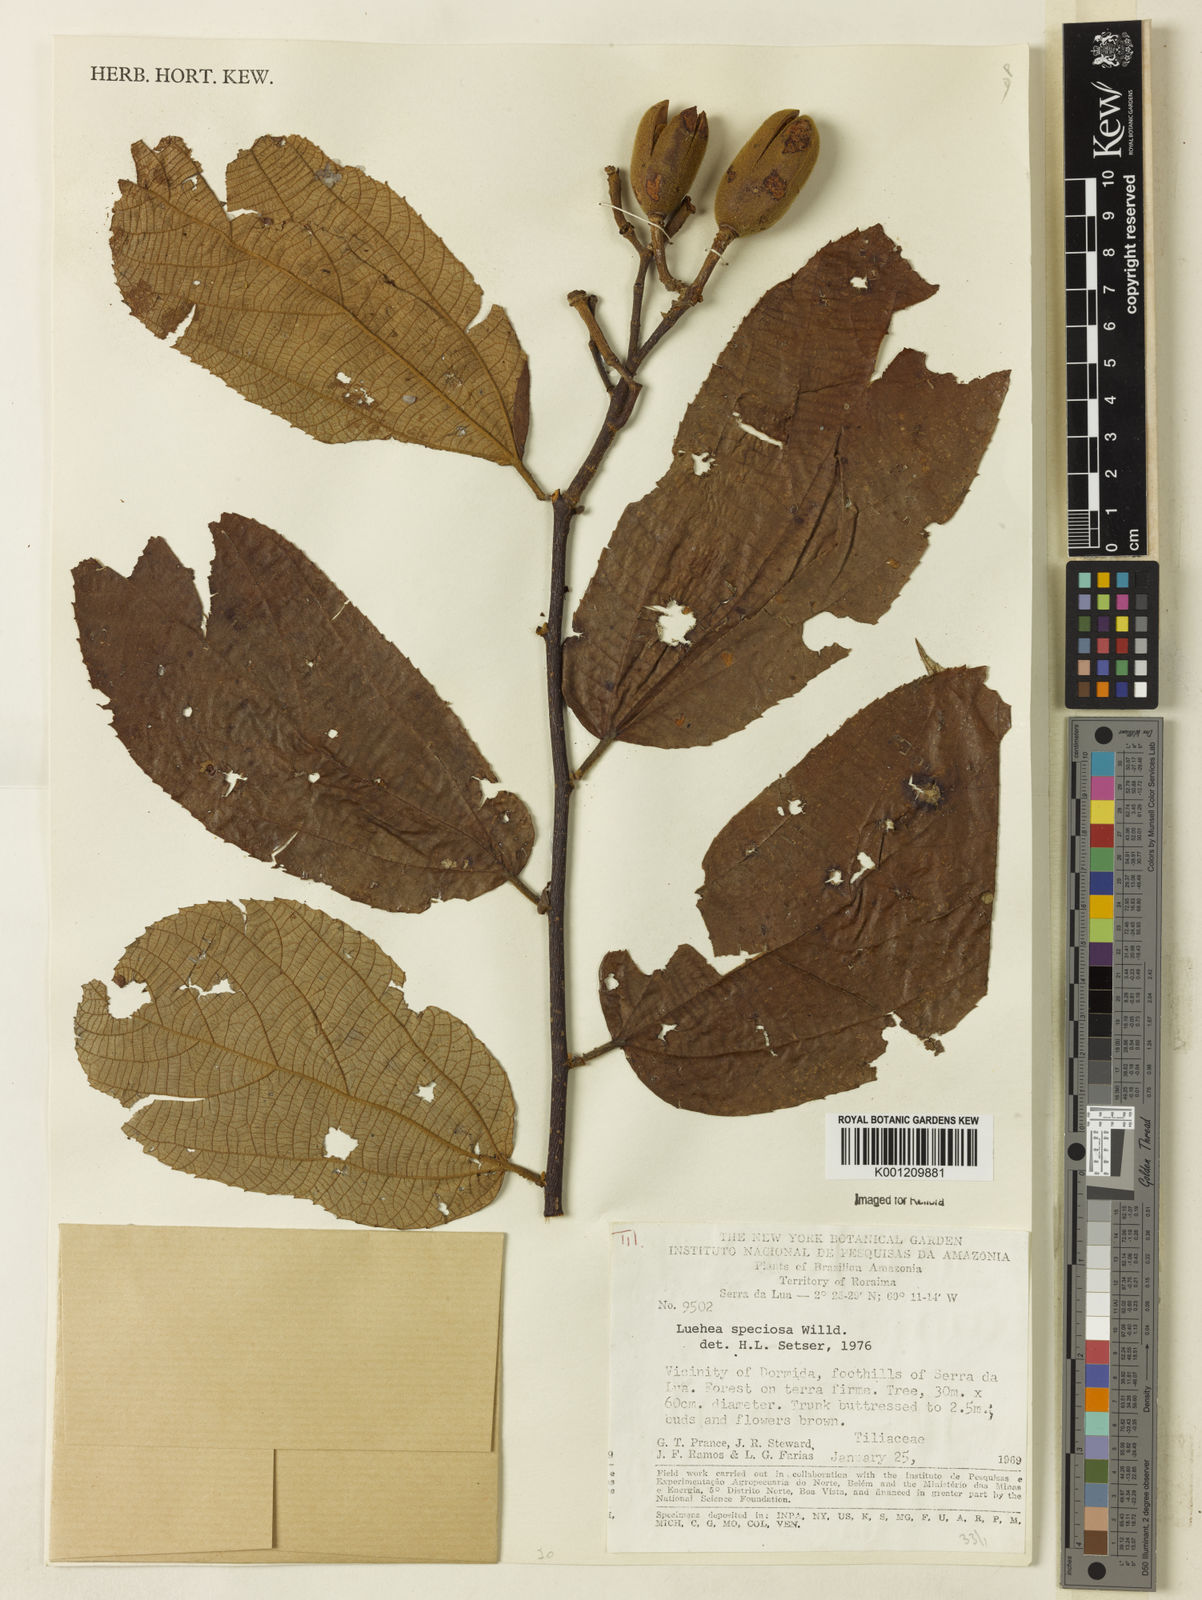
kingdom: Plantae
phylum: Tracheophyta
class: Magnoliopsida
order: Malvales
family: Malvaceae
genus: Luehea
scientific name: Luehea speciosa
